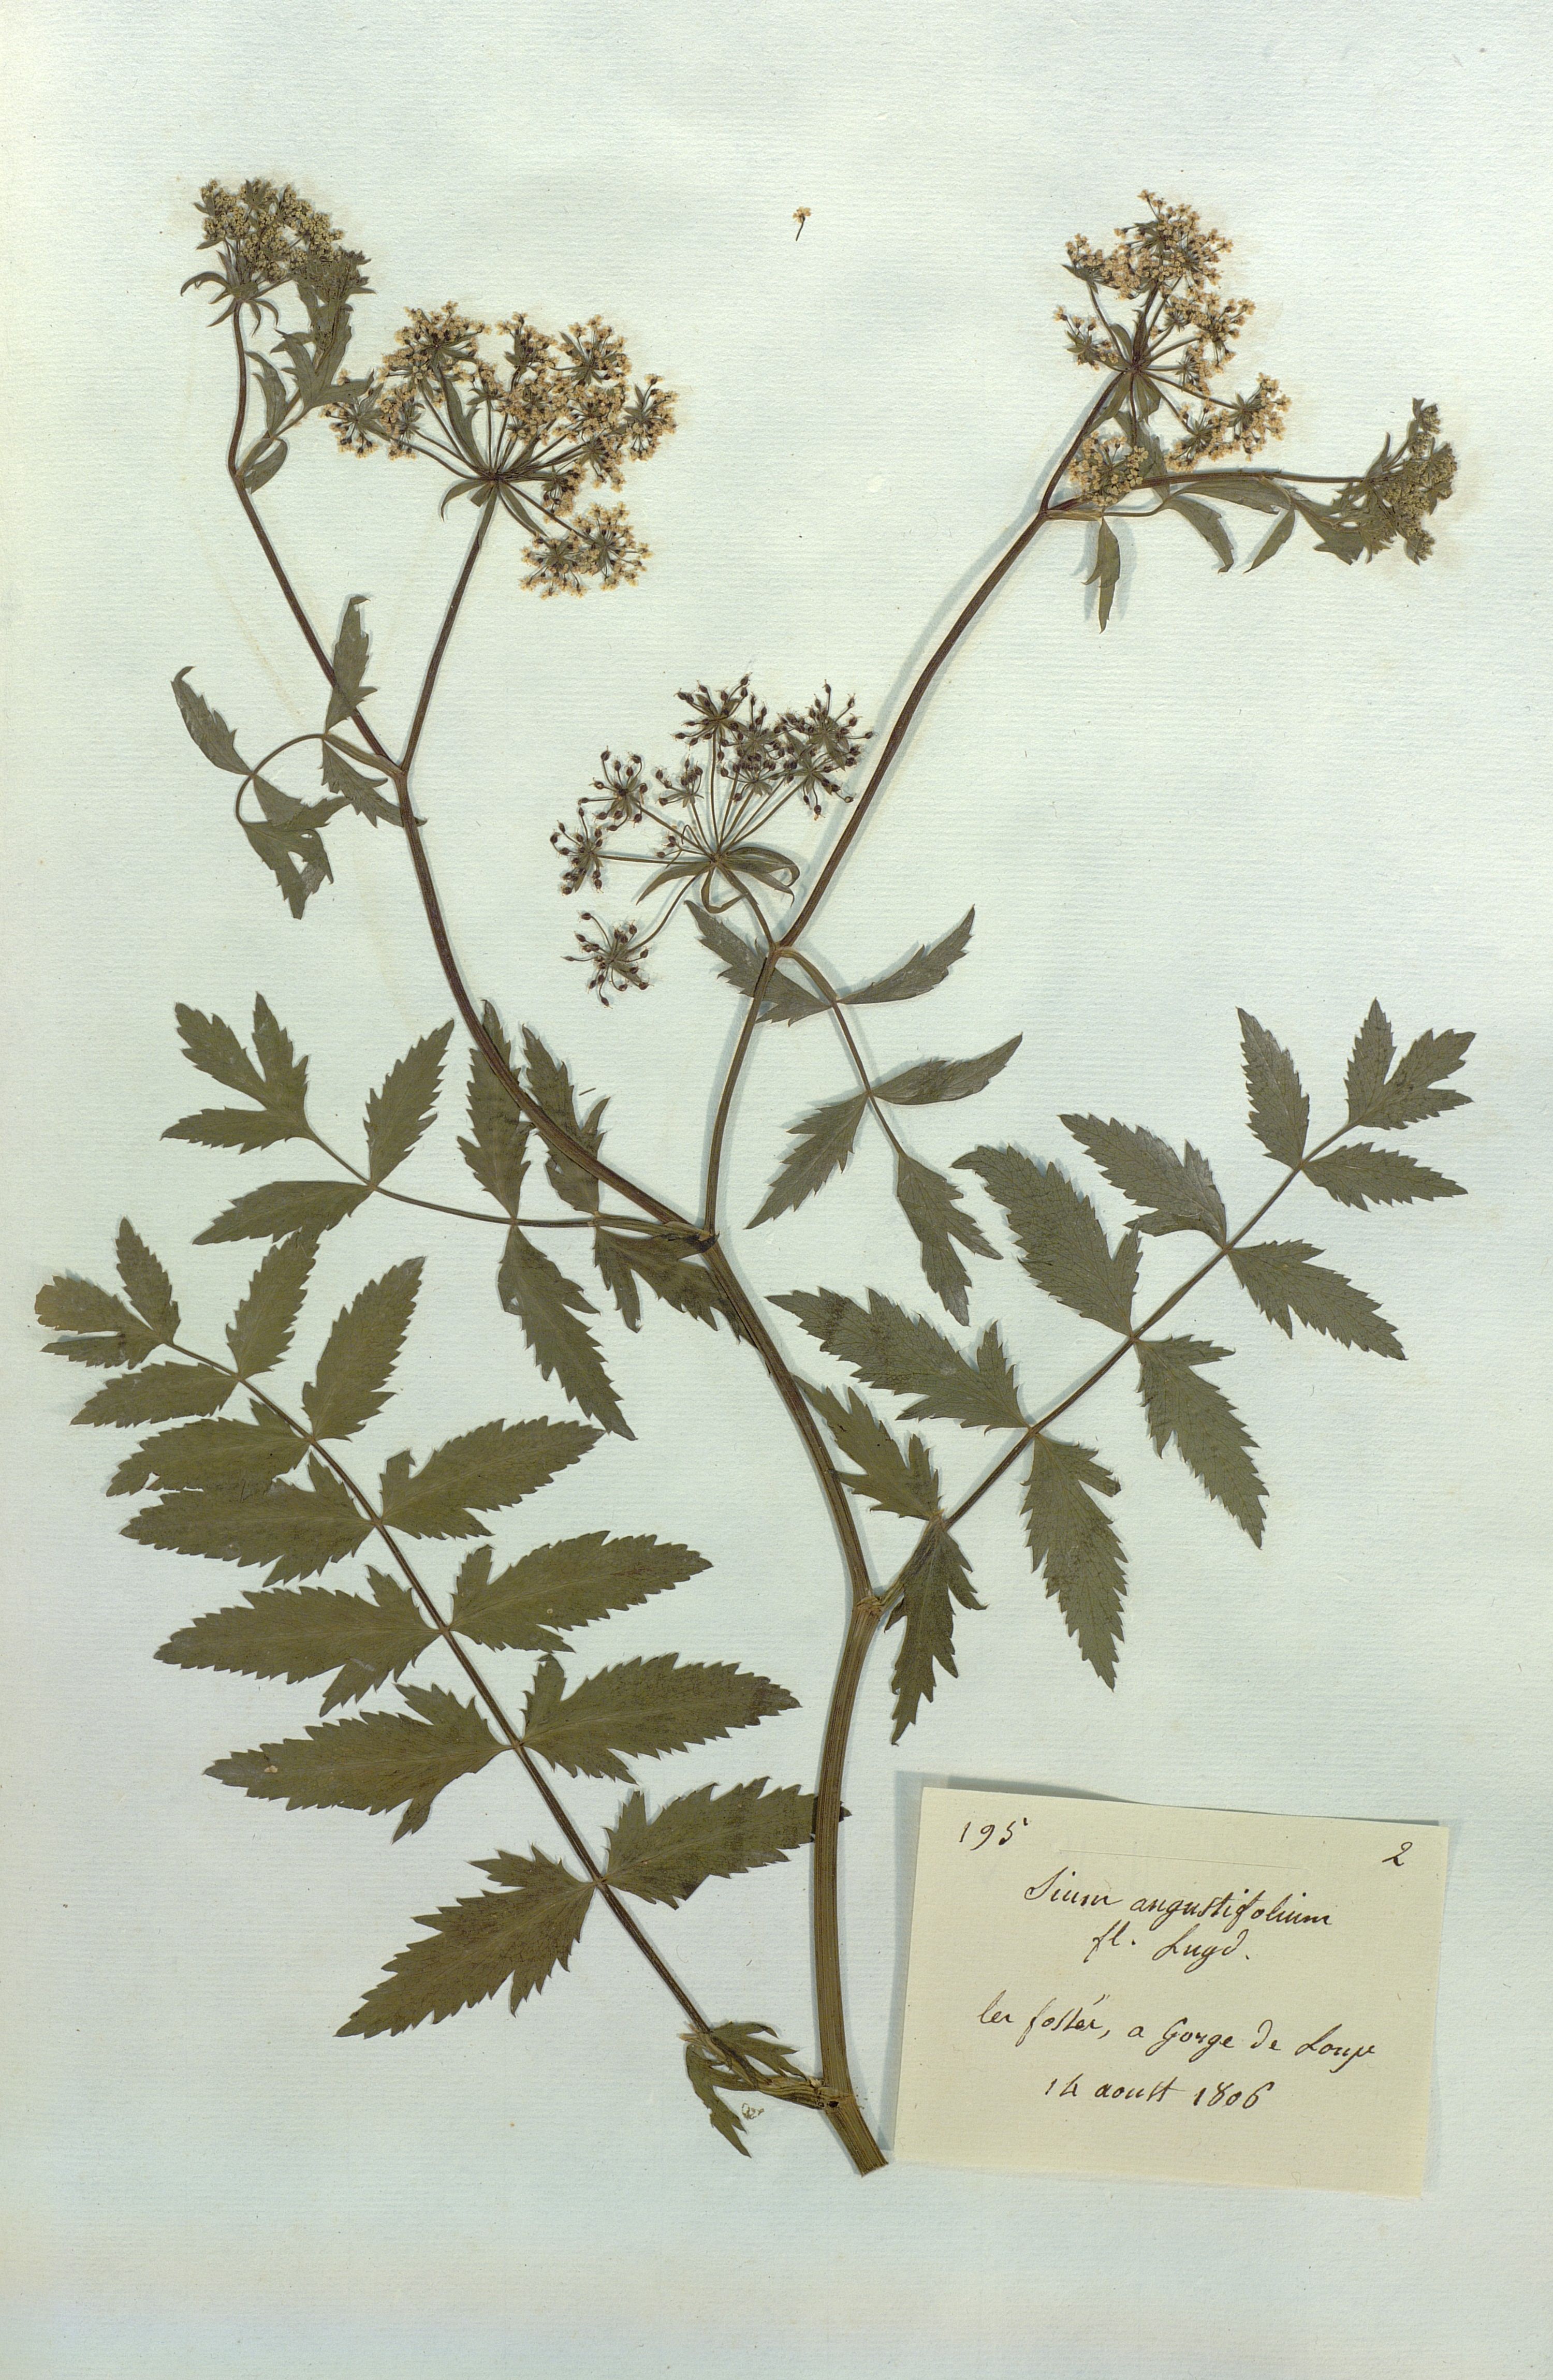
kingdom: Plantae
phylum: Tracheophyta
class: Magnoliopsida
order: Apiales
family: Apiaceae
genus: Berula
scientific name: Berula
